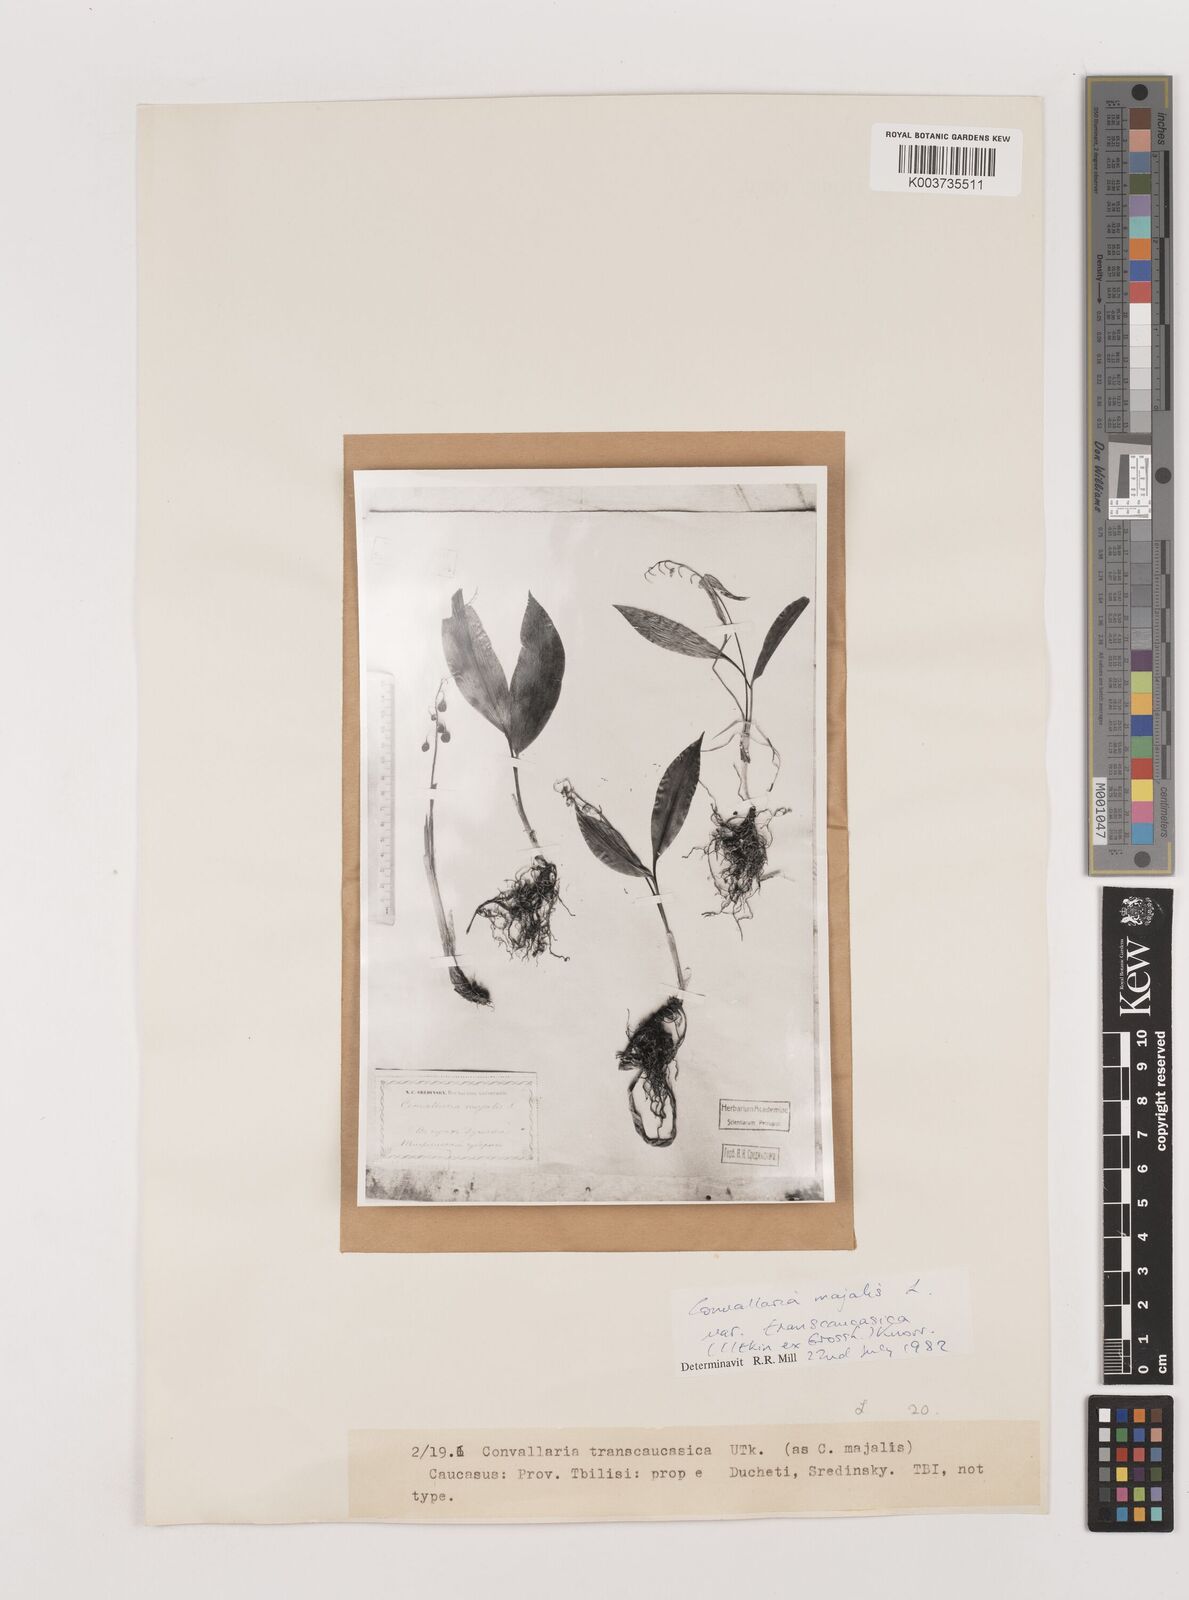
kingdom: Plantae
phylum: Tracheophyta
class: Liliopsida
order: Asparagales
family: Asparagaceae
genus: Convallaria
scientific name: Convallaria majalis
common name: Lily-of-the-valley
